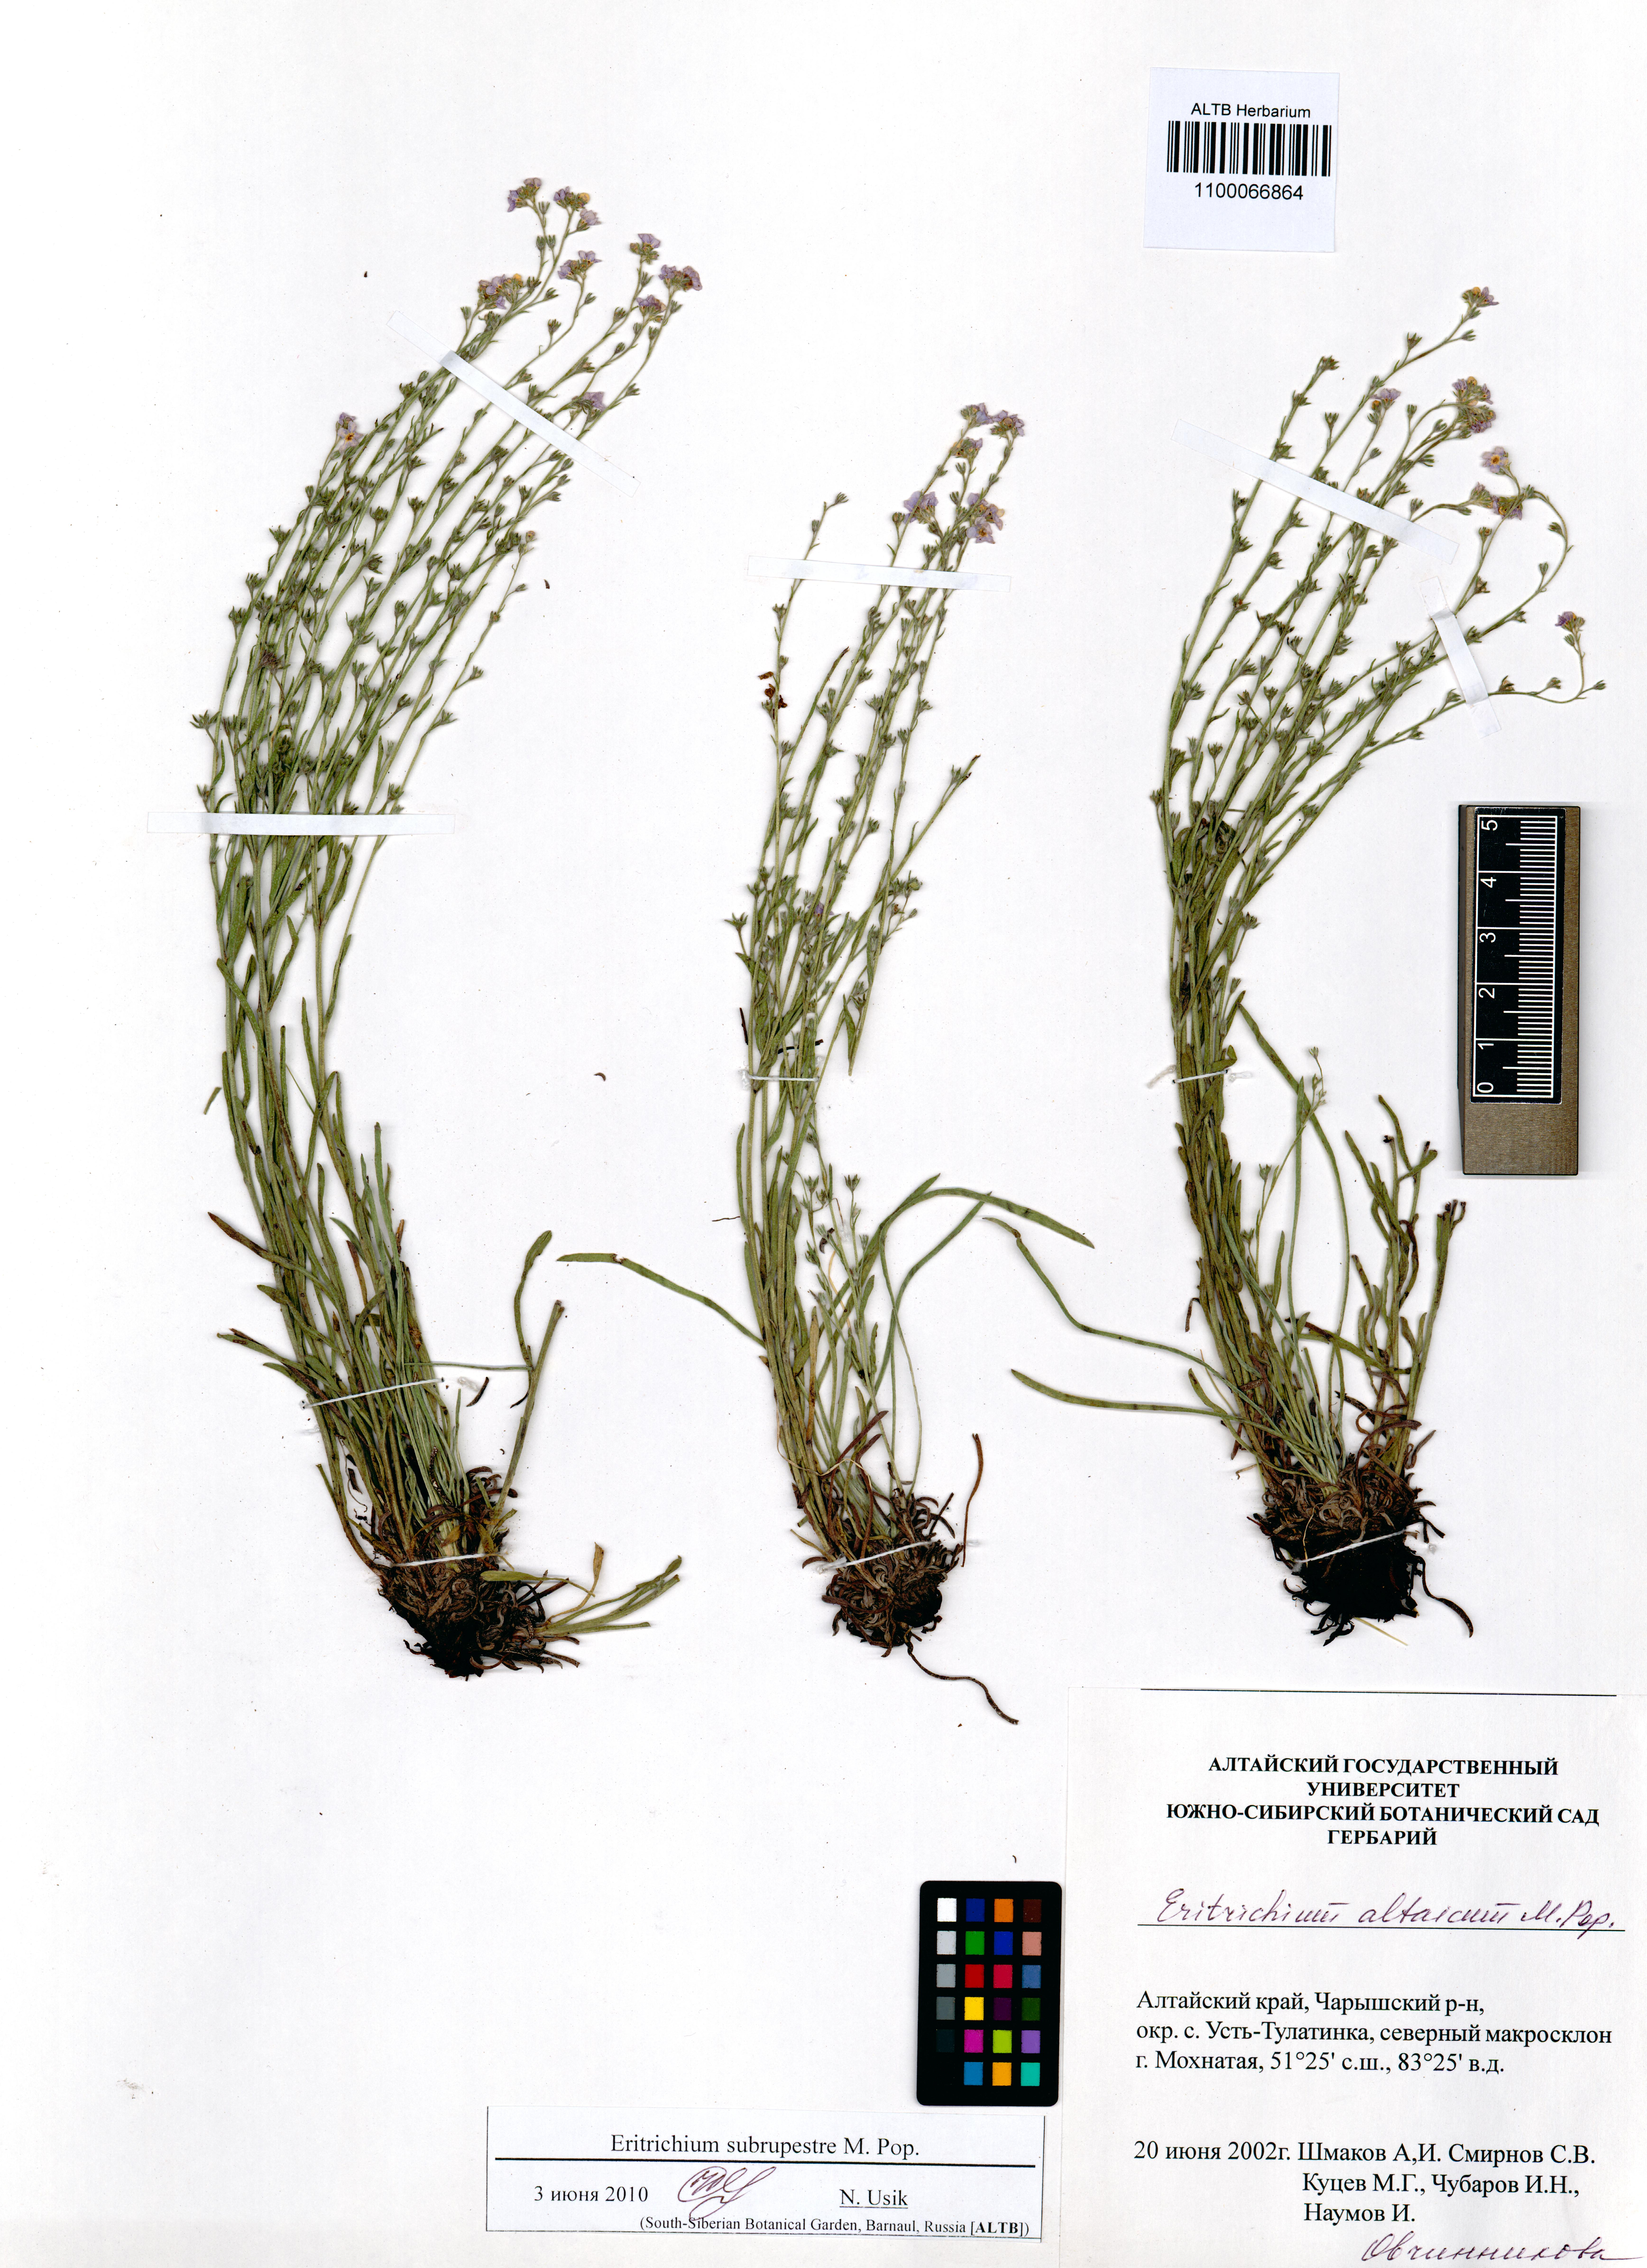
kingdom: Plantae
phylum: Tracheophyta
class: Magnoliopsida
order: Boraginales
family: Boraginaceae
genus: Eritrichium
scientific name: Eritrichium pauciflorum
